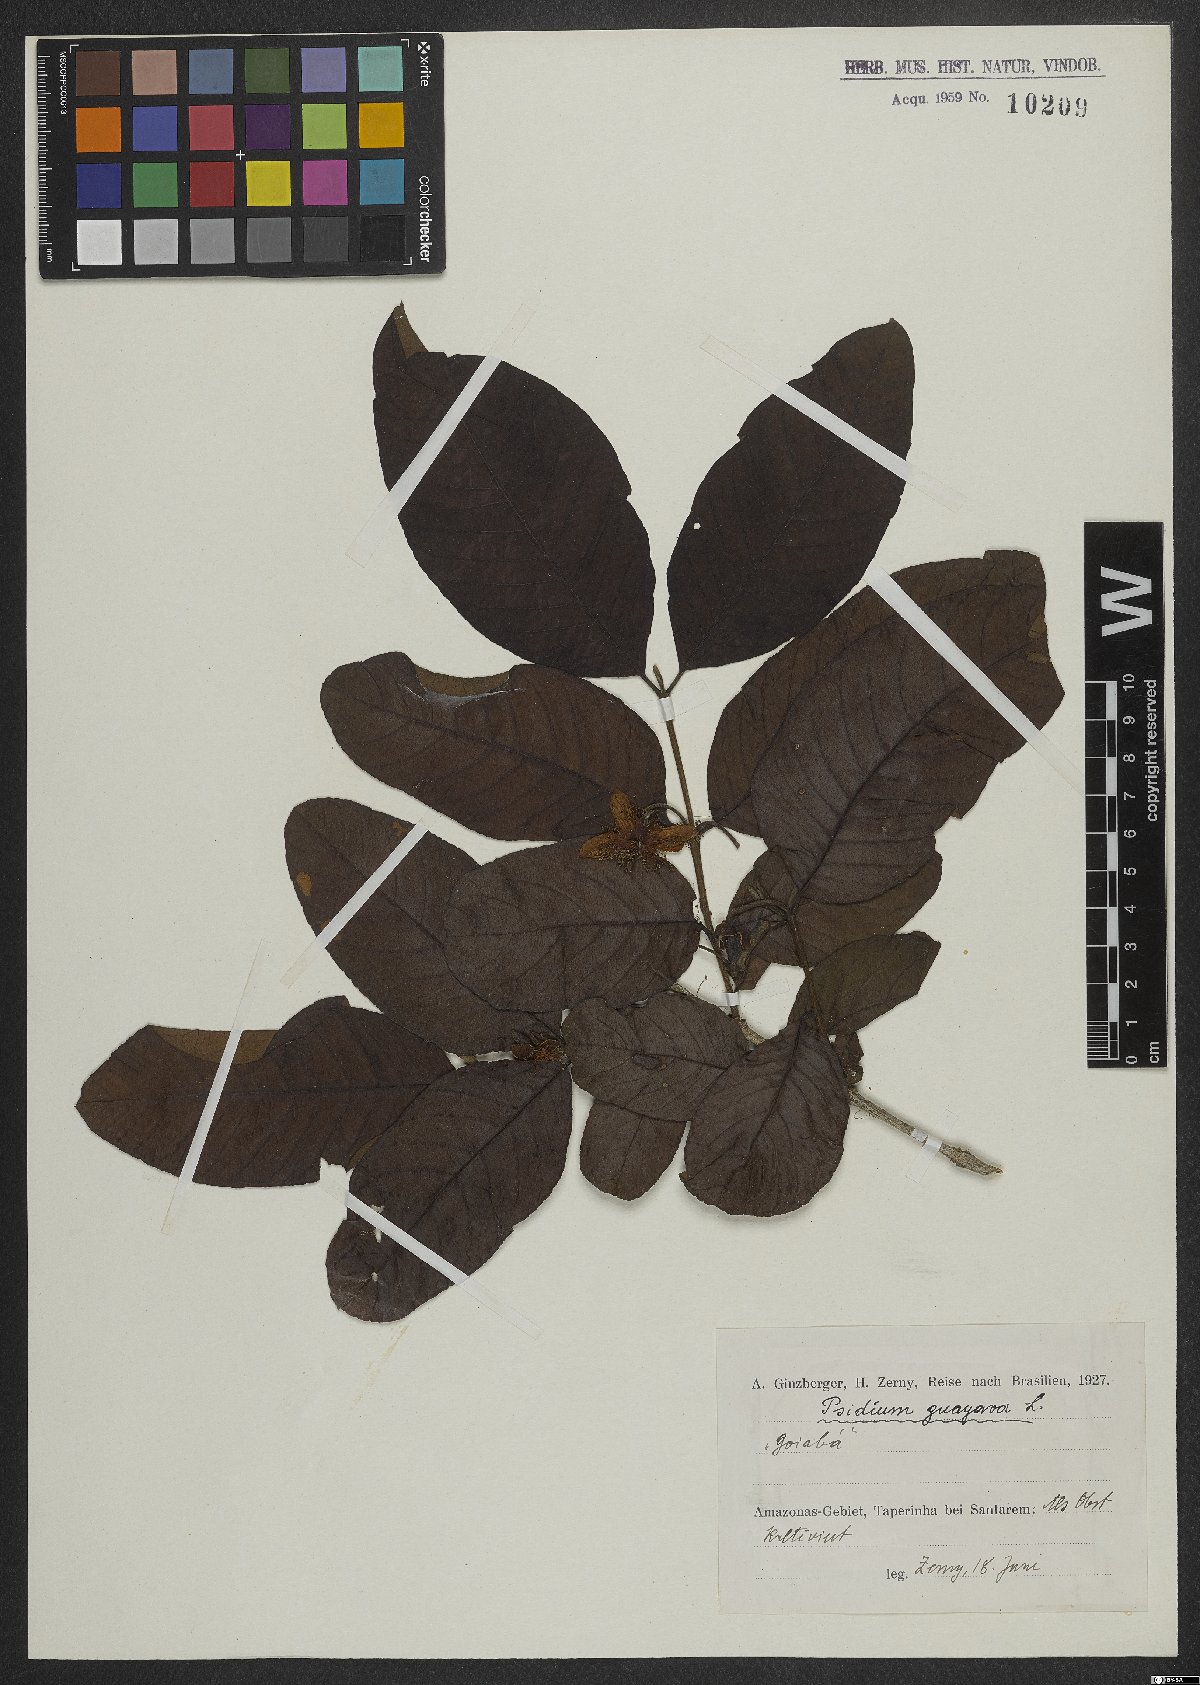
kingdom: Plantae
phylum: Tracheophyta
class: Magnoliopsida
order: Myrtales
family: Myrtaceae
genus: Psidium
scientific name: Psidium guajava
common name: Guava
